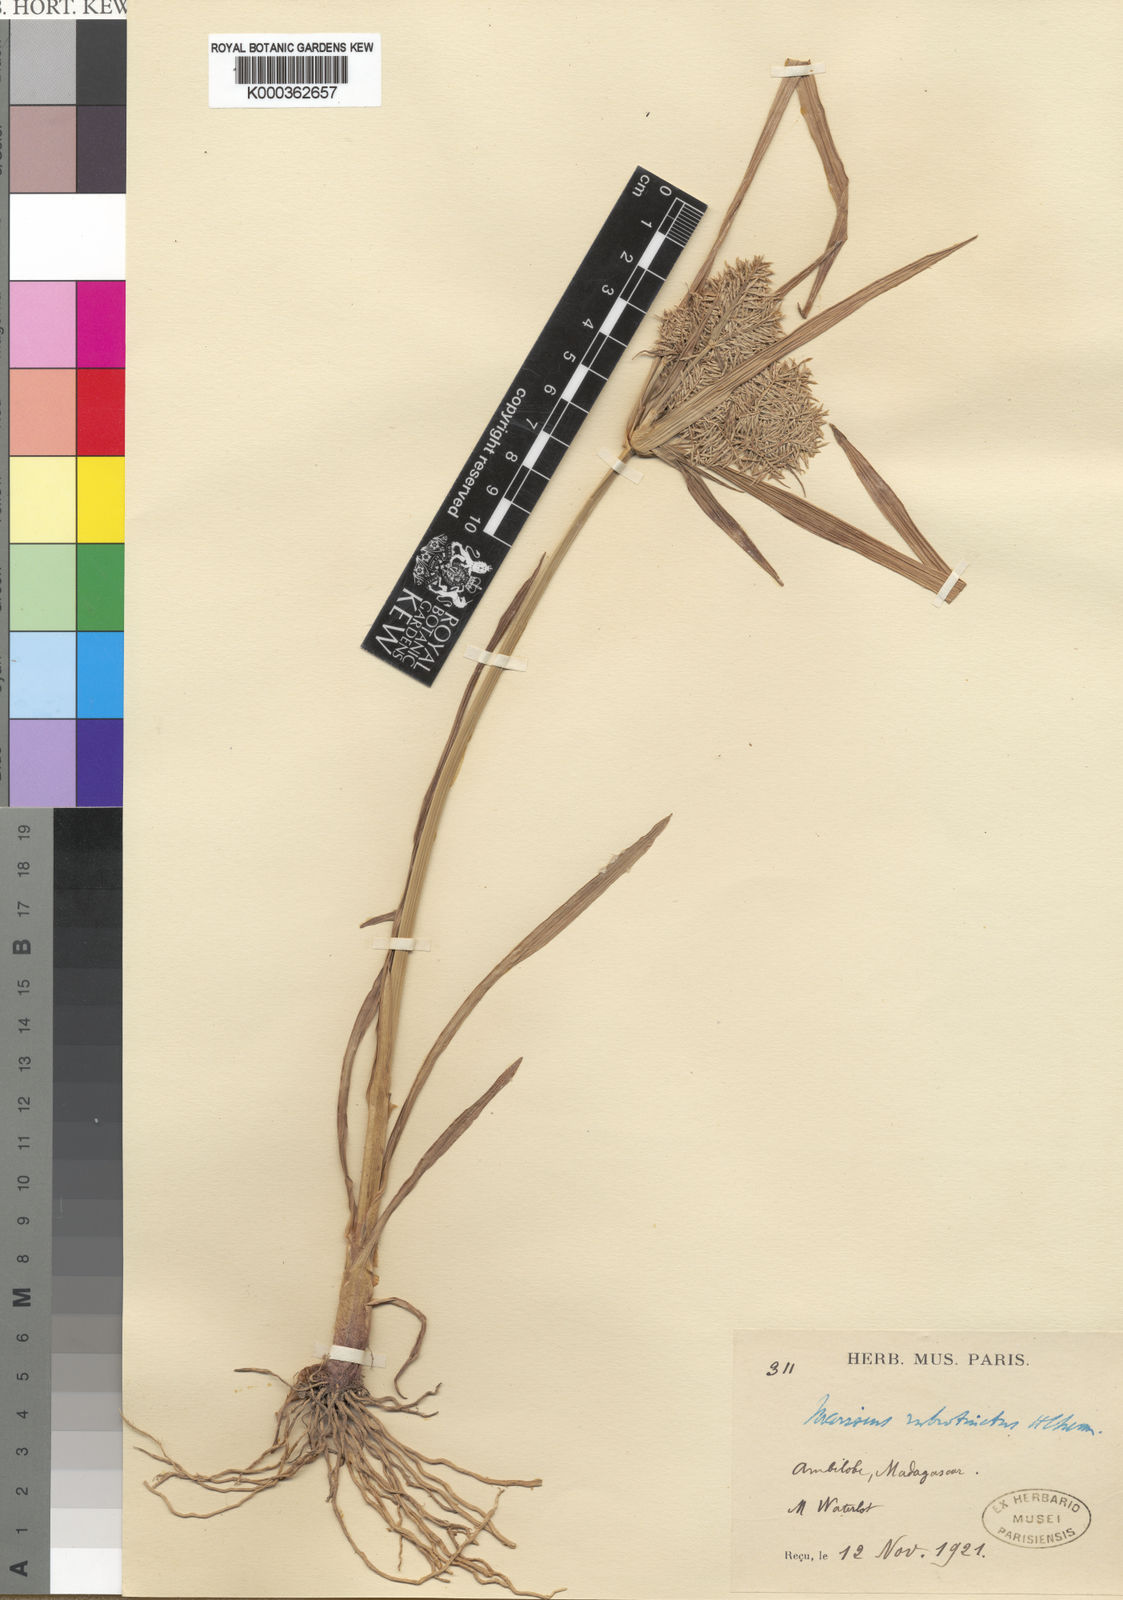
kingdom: Plantae
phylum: Tracheophyta
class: Liliopsida
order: Poales
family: Cyperaceae
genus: Cyperus
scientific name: Cyperus
